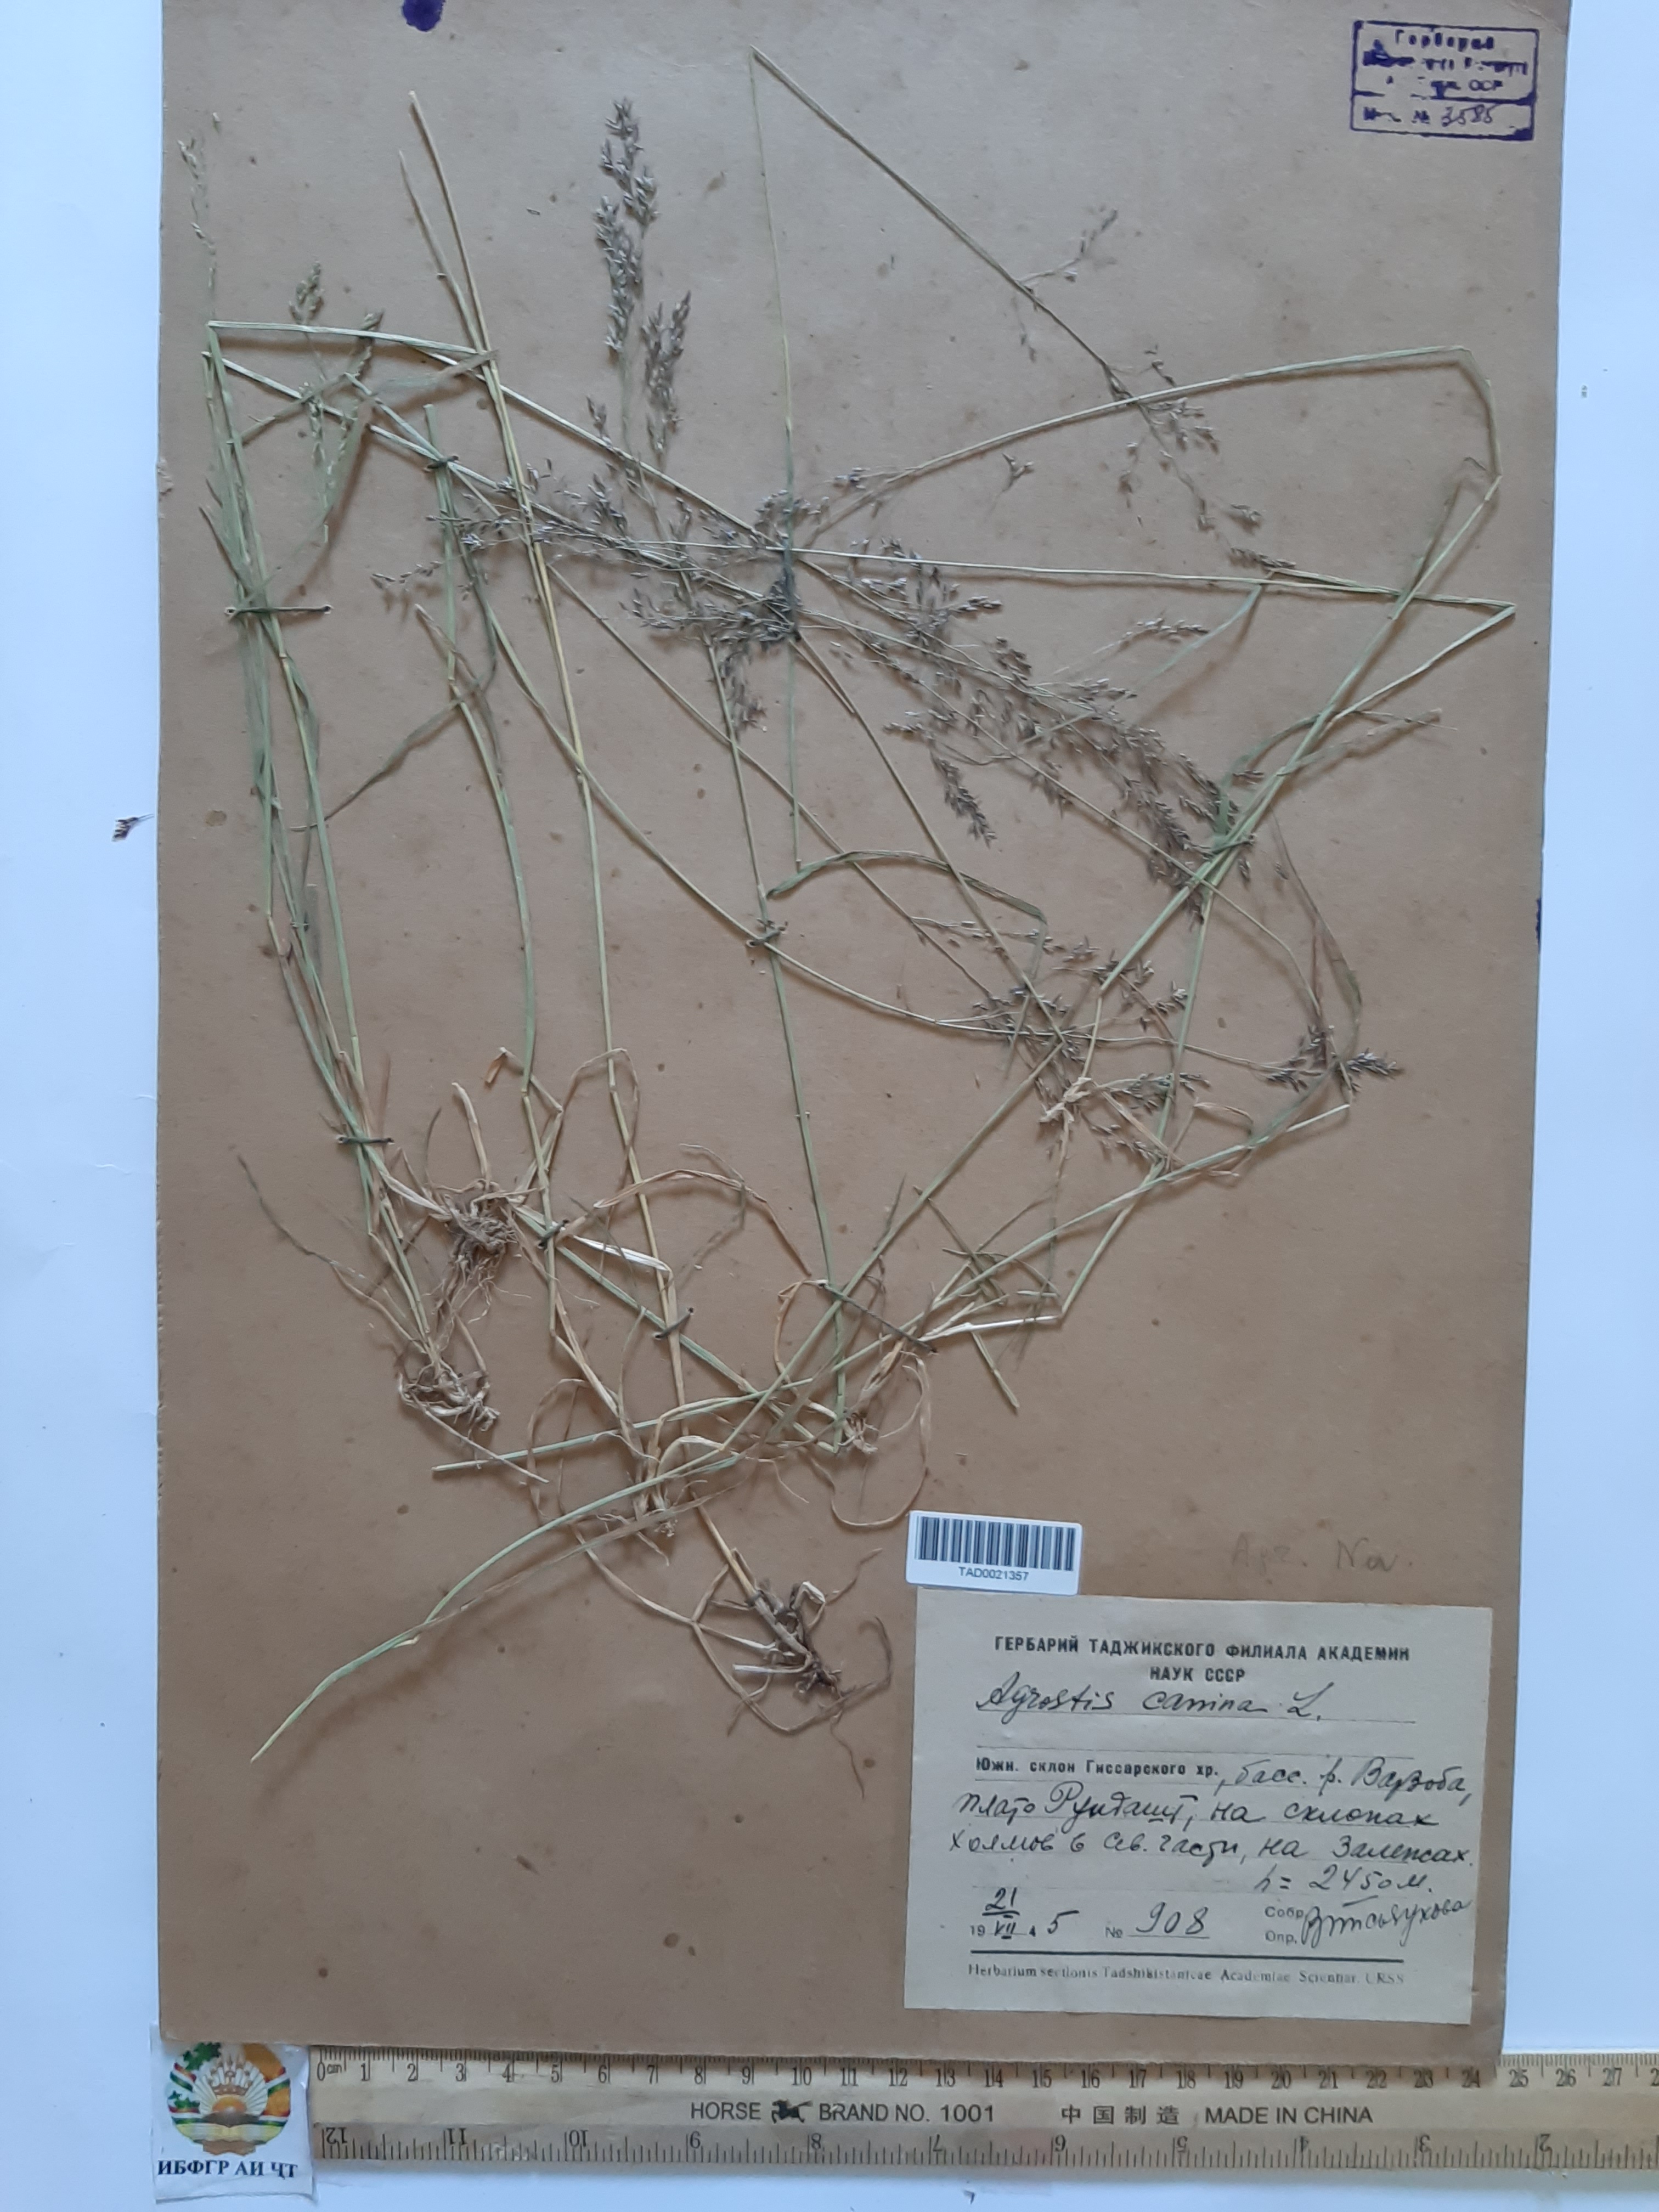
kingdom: Plantae
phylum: Tracheophyta
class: Liliopsida
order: Poales
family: Poaceae
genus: Agrostis
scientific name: Agrostis canina
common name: Velvet bent
